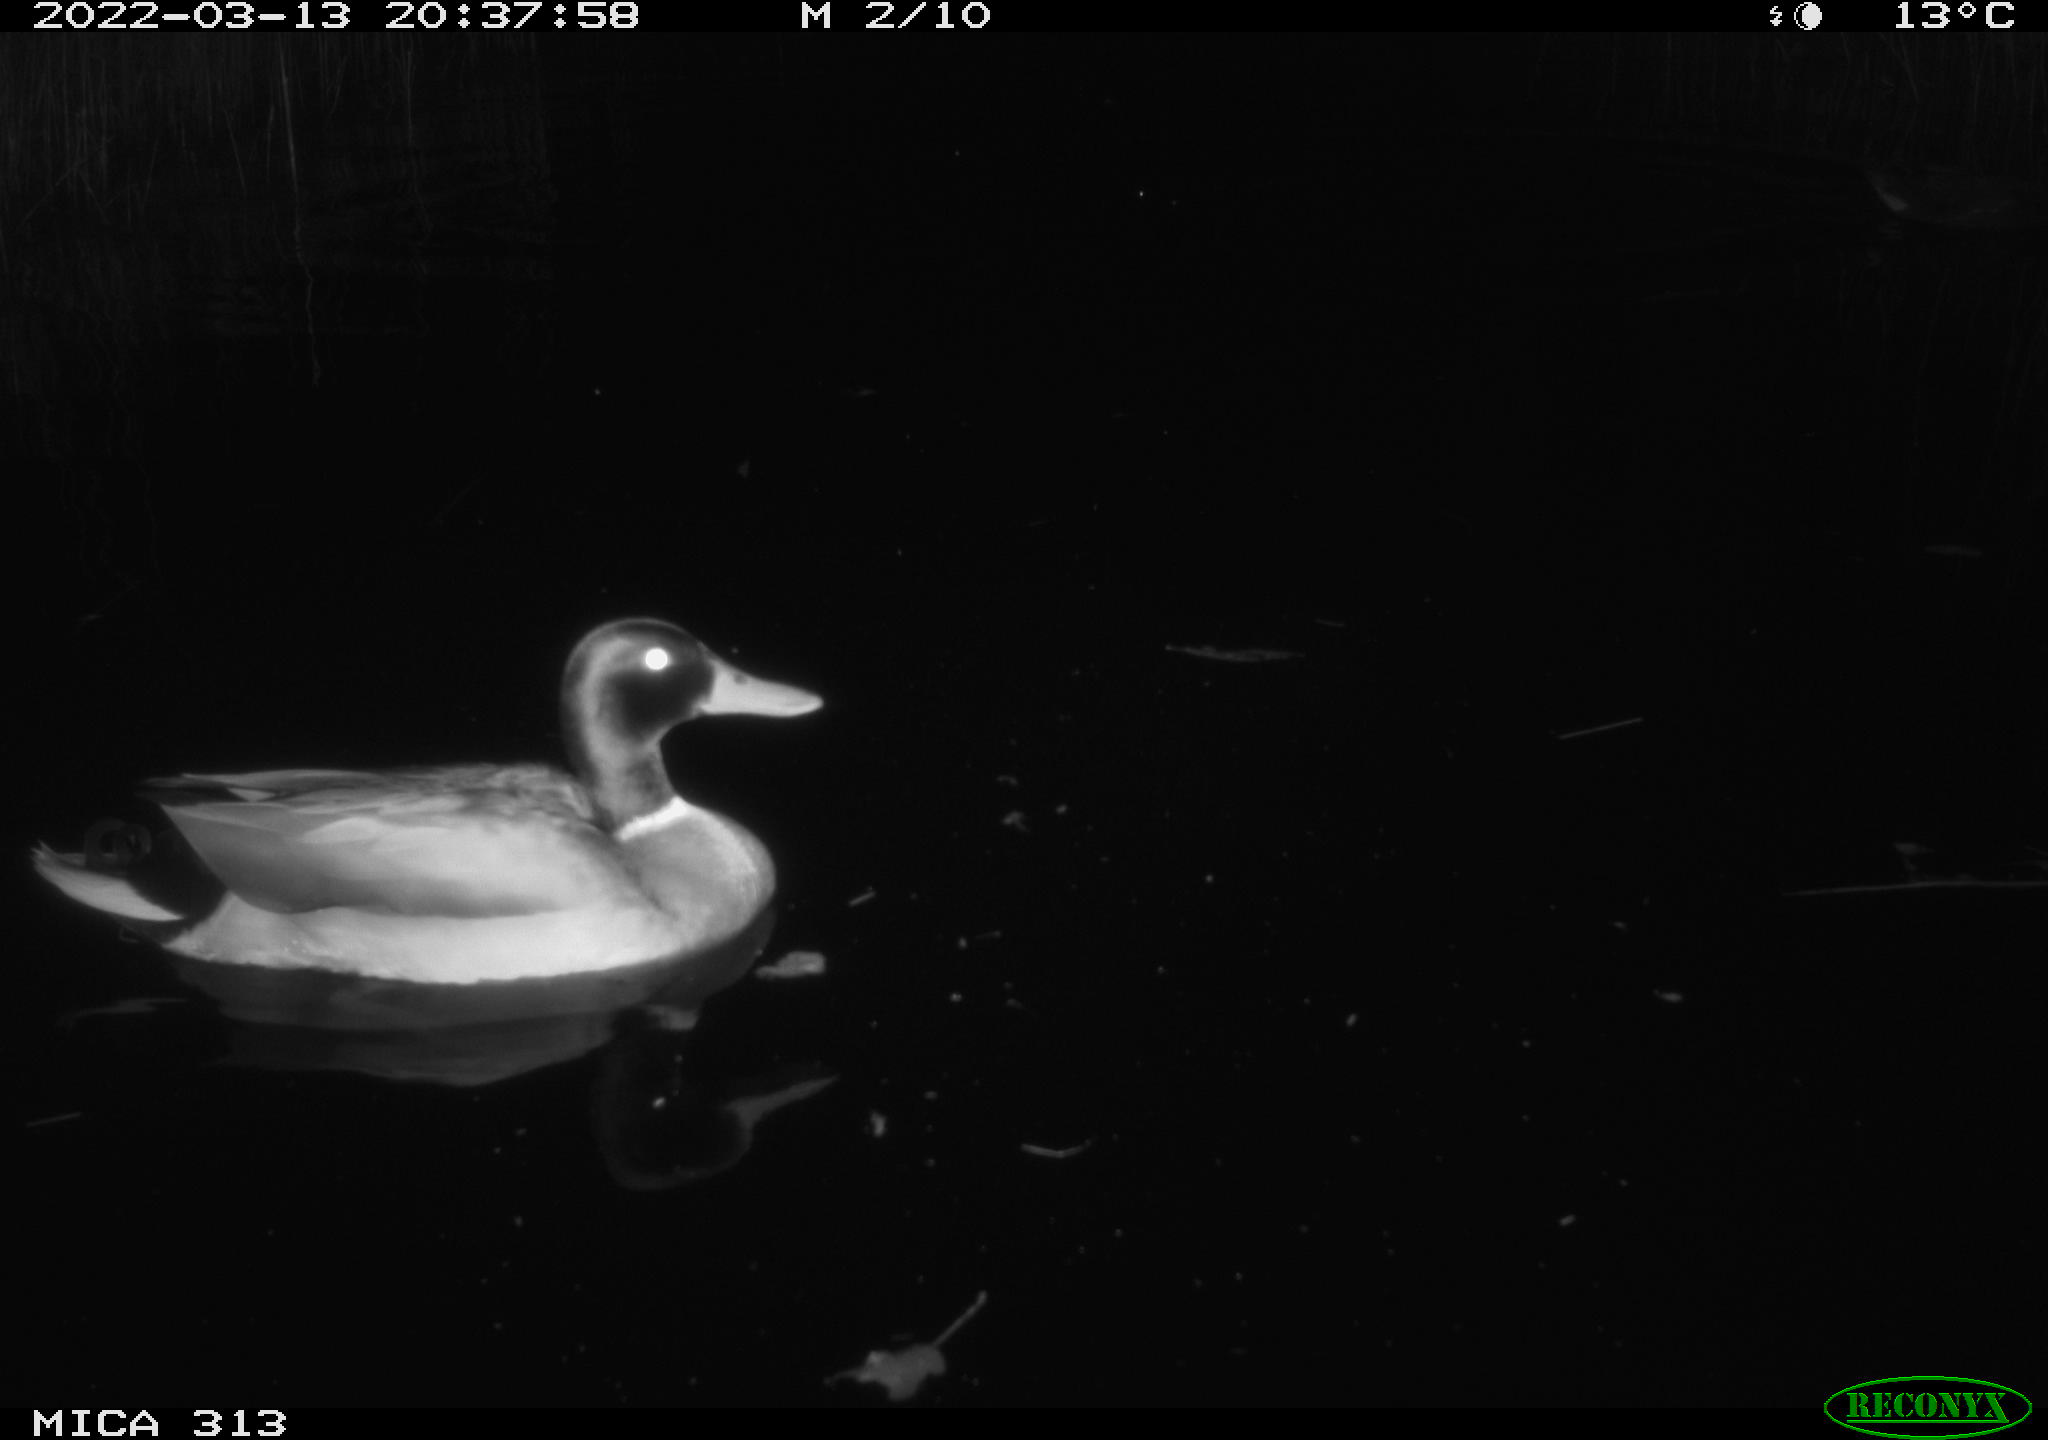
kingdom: Animalia
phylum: Chordata
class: Aves
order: Anseriformes
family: Anatidae
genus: Anas
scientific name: Anas platyrhynchos
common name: Mallard
